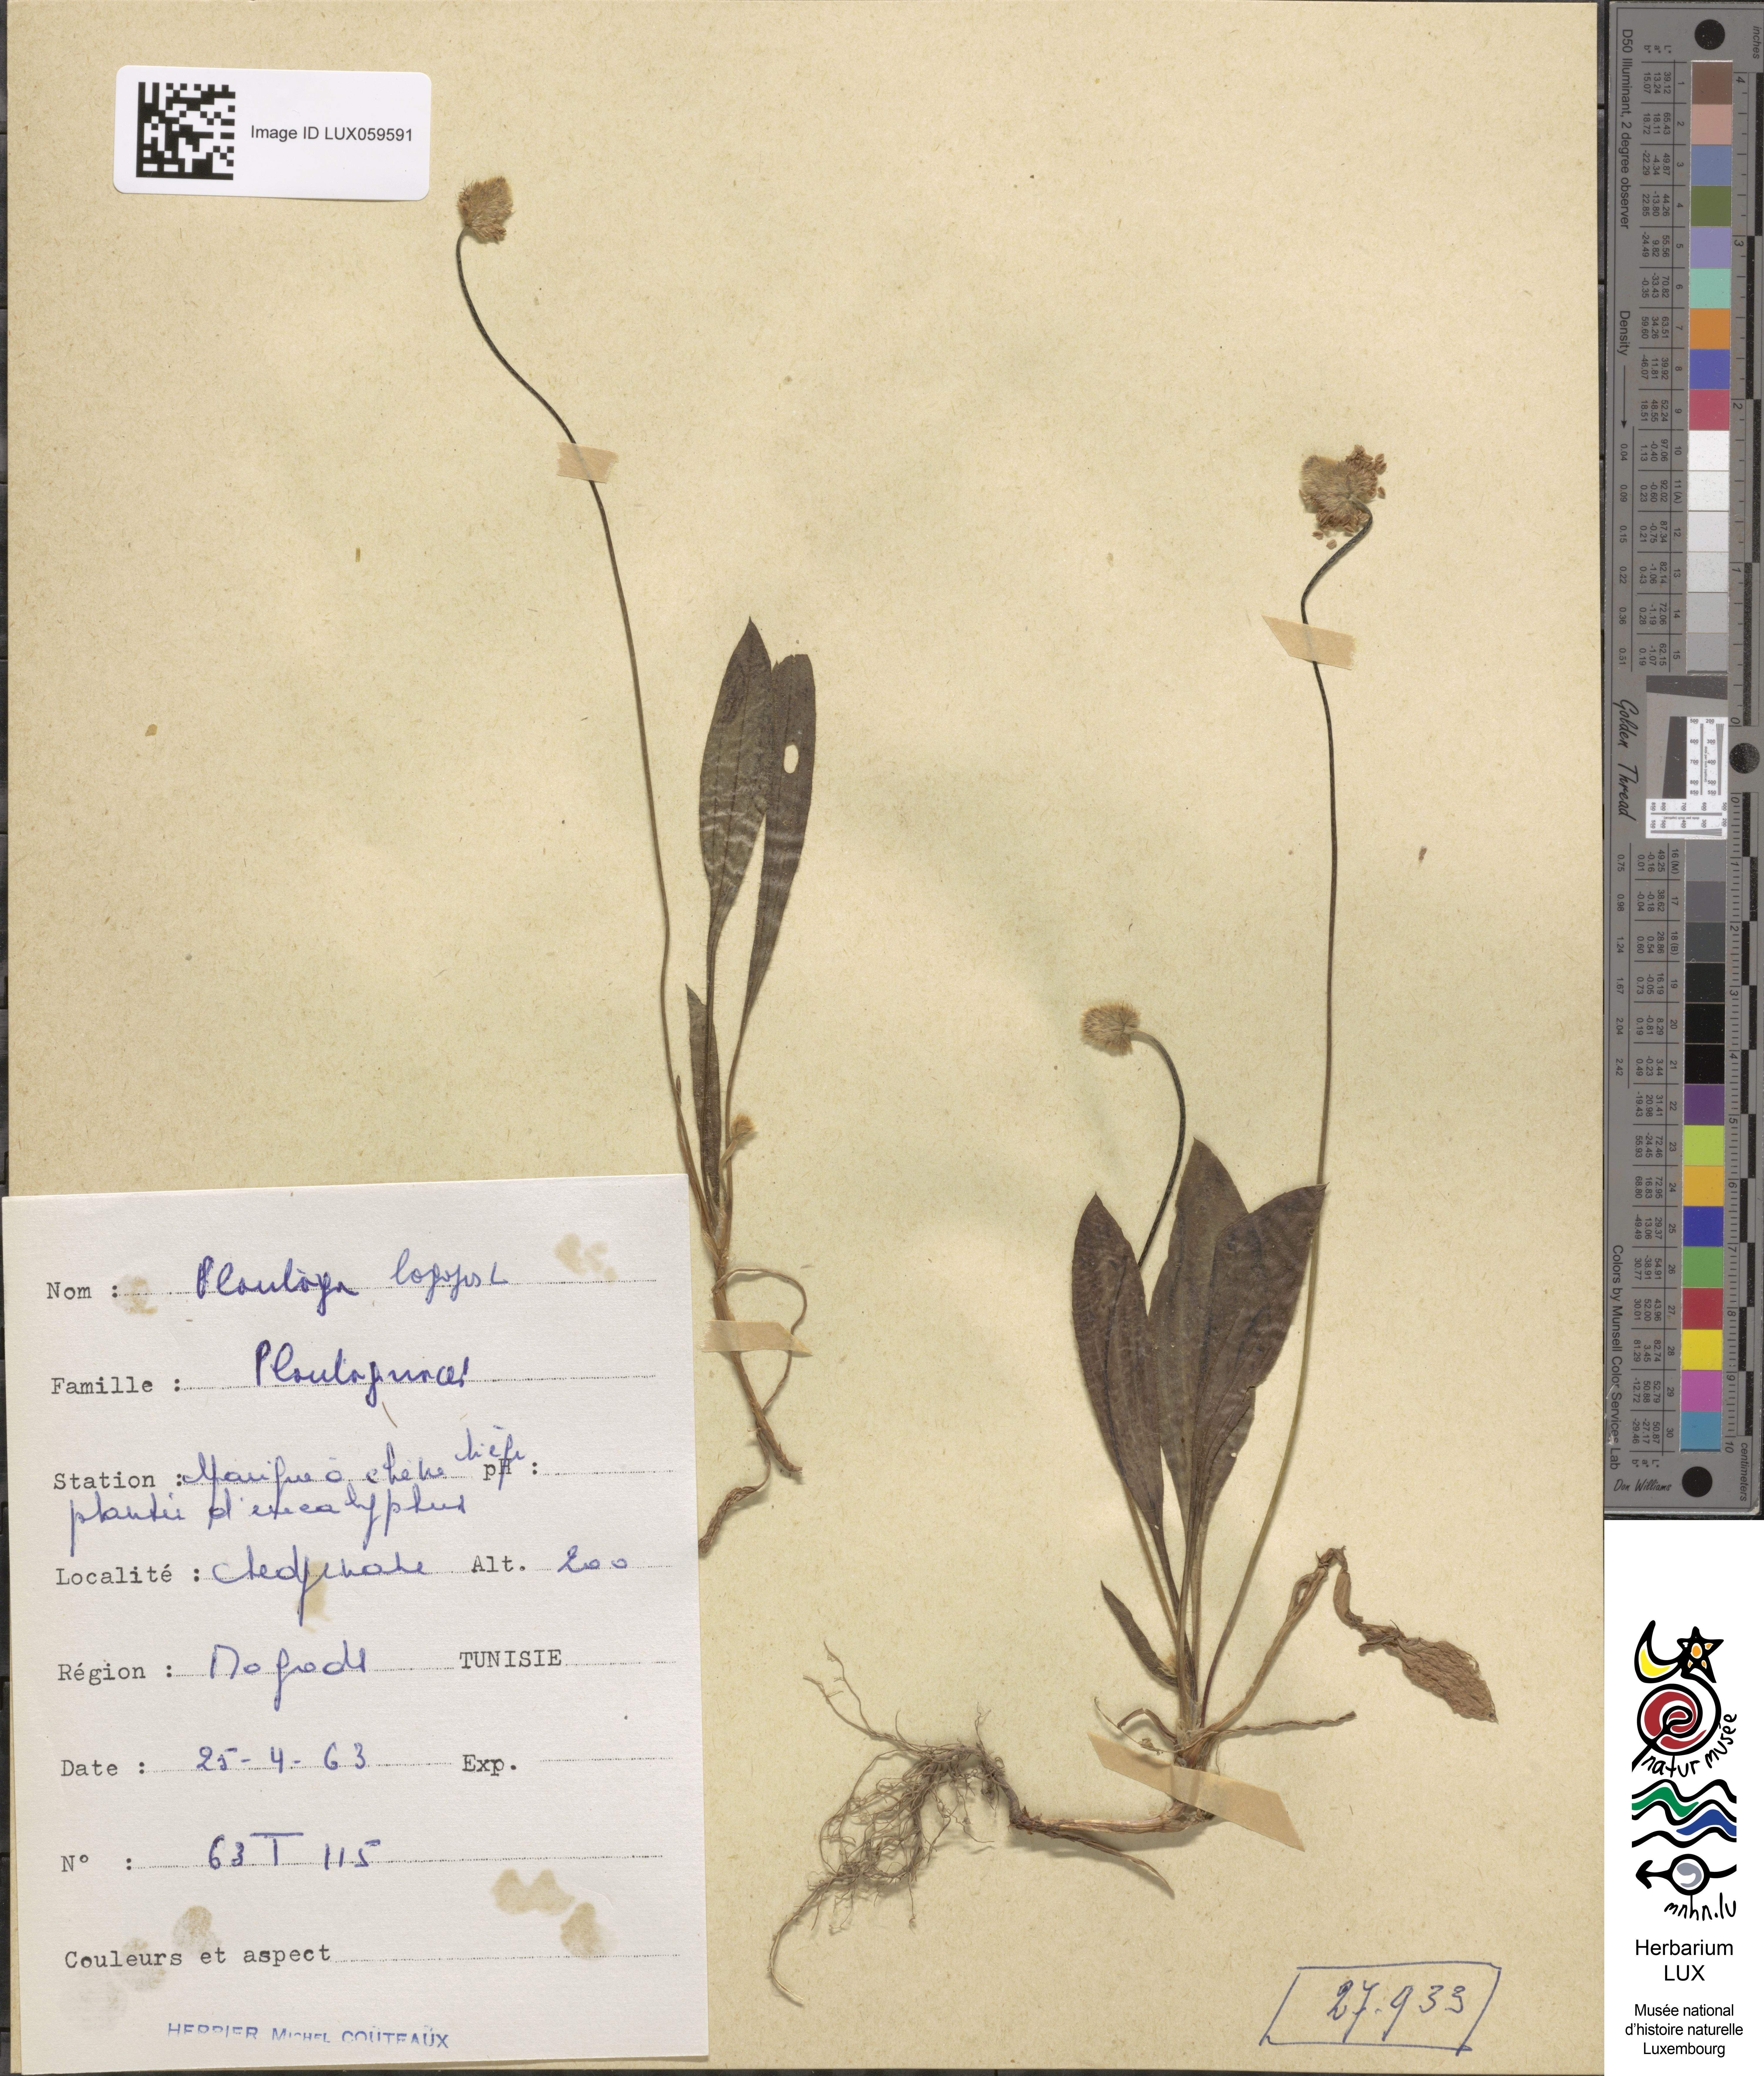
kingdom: Plantae
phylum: Tracheophyta
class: Magnoliopsida
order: Lamiales
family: Plantaginaceae
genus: Plantago
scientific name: Plantago lagopus
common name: Hare-foot plantain
